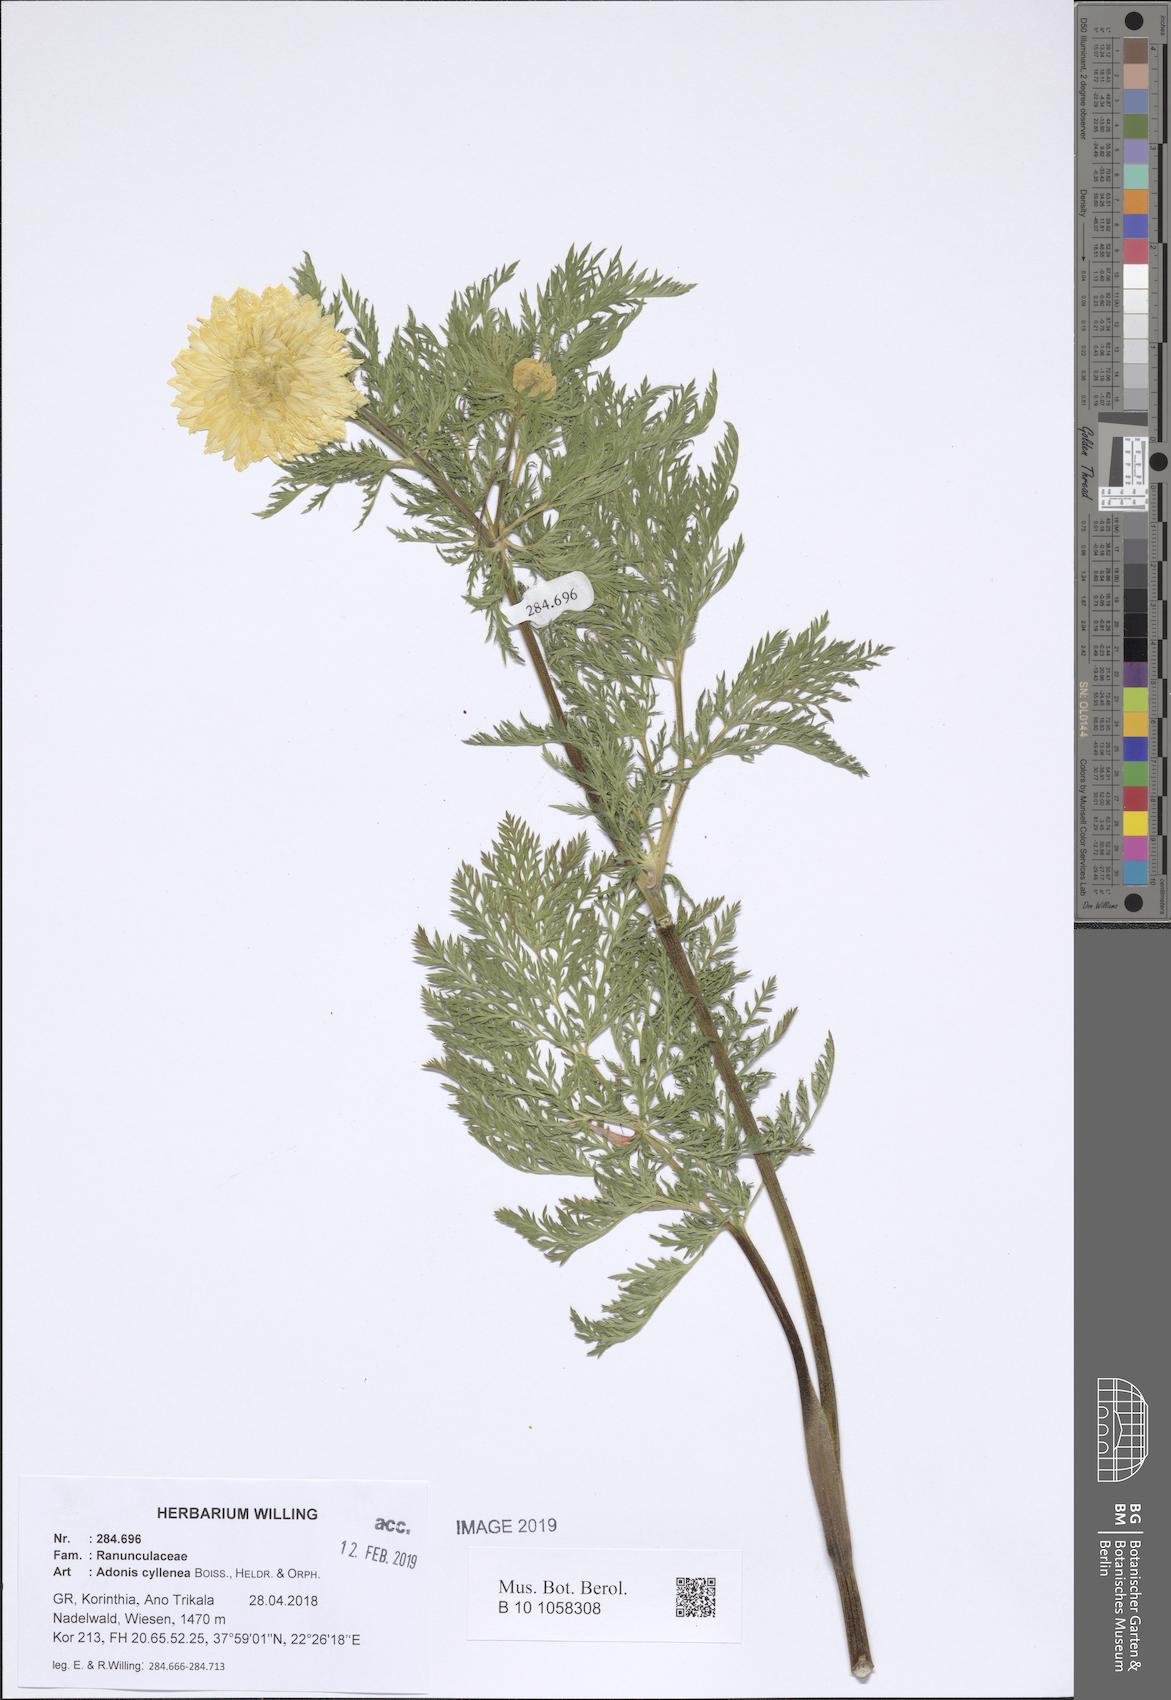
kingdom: Plantae
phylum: Tracheophyta
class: Magnoliopsida
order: Ranunculales
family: Ranunculaceae
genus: Adonis
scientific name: Adonis cyllenea
